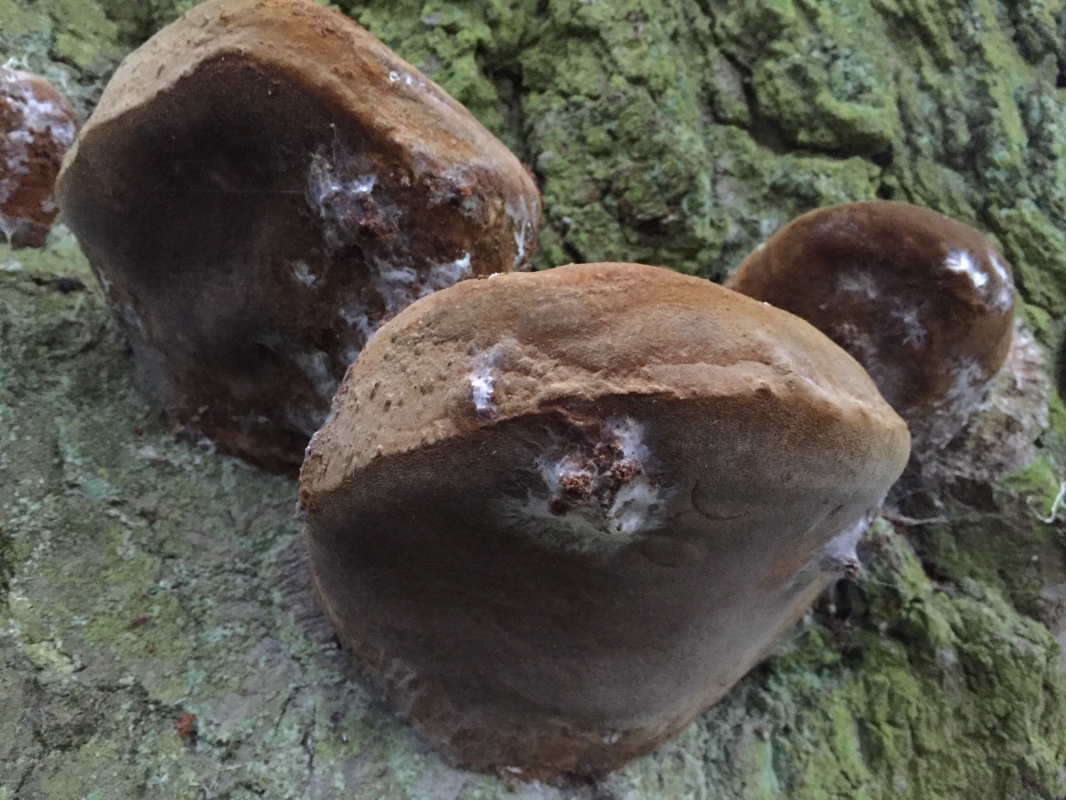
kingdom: Fungi
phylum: Basidiomycota
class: Agaricomycetes
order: Hymenochaetales
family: Hymenochaetaceae
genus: Fomitiporia
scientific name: Fomitiporia robusta
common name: ege-ildporesvamp
